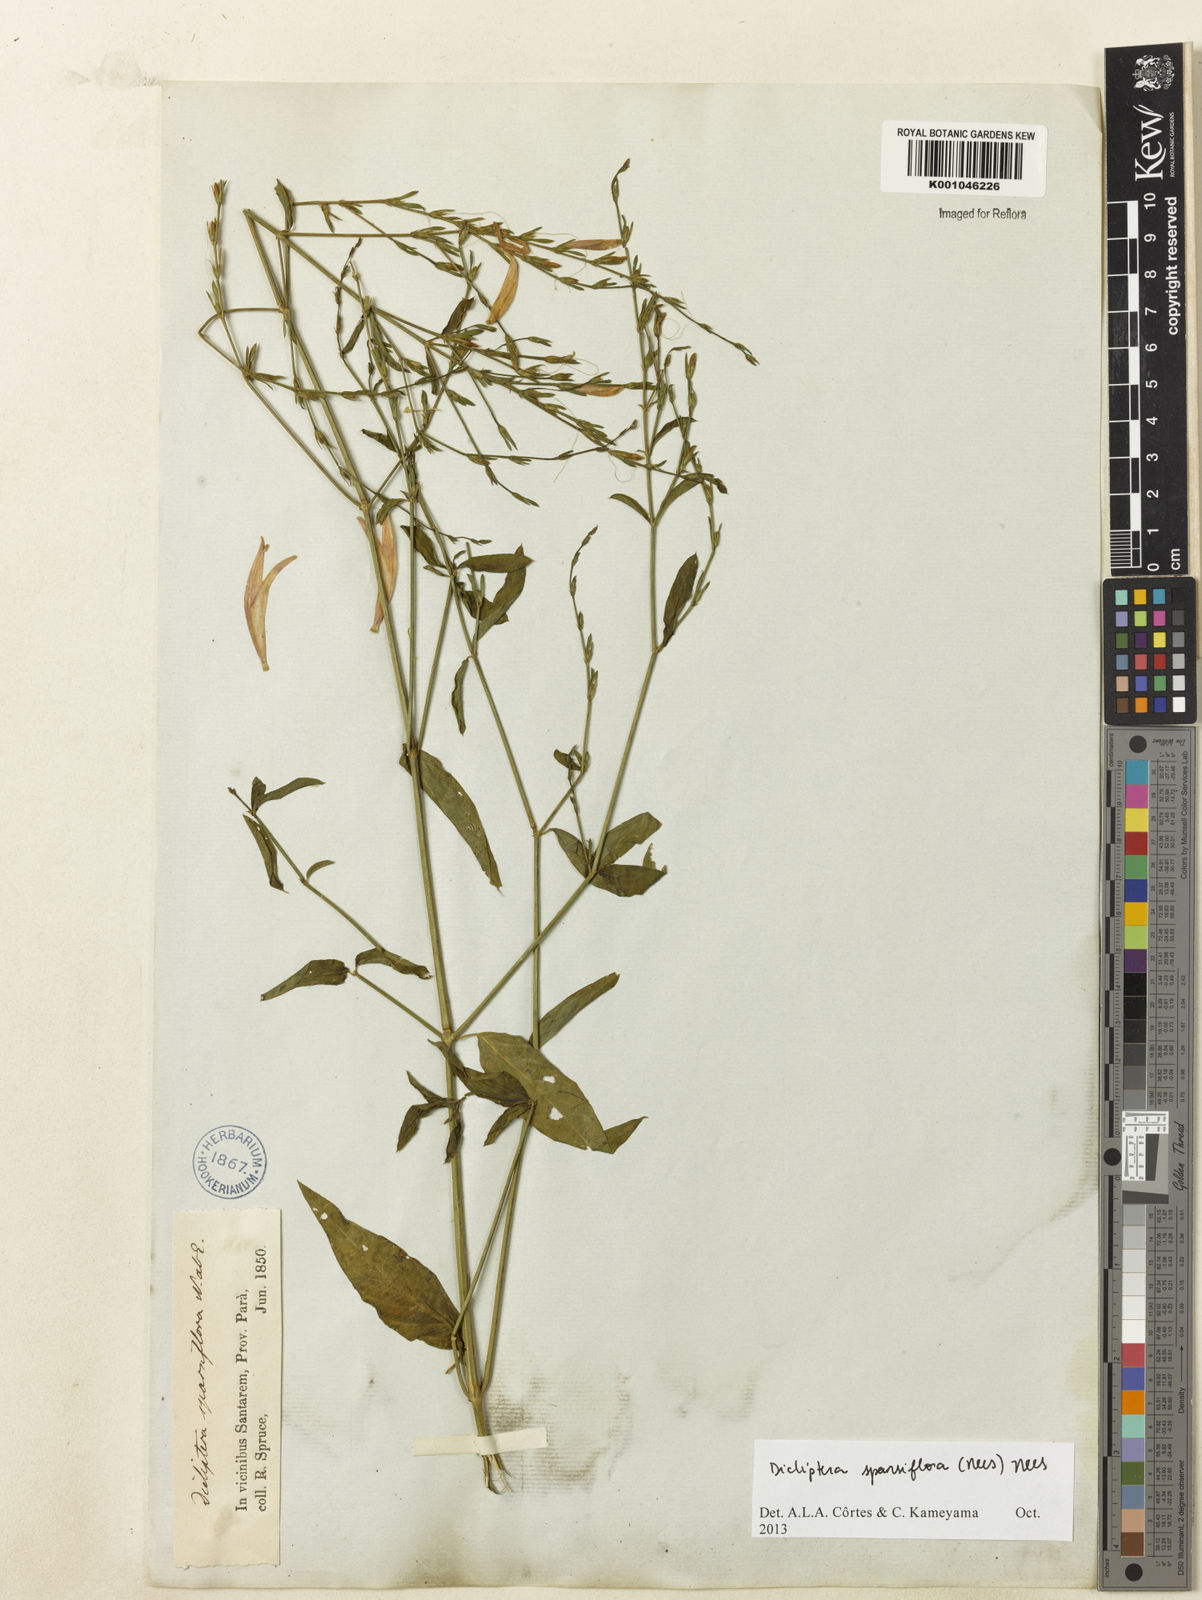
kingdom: Plantae
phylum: Tracheophyta
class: Magnoliopsida
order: Lamiales
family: Acanthaceae
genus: Dicliptera
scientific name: Dicliptera sparsiflora
